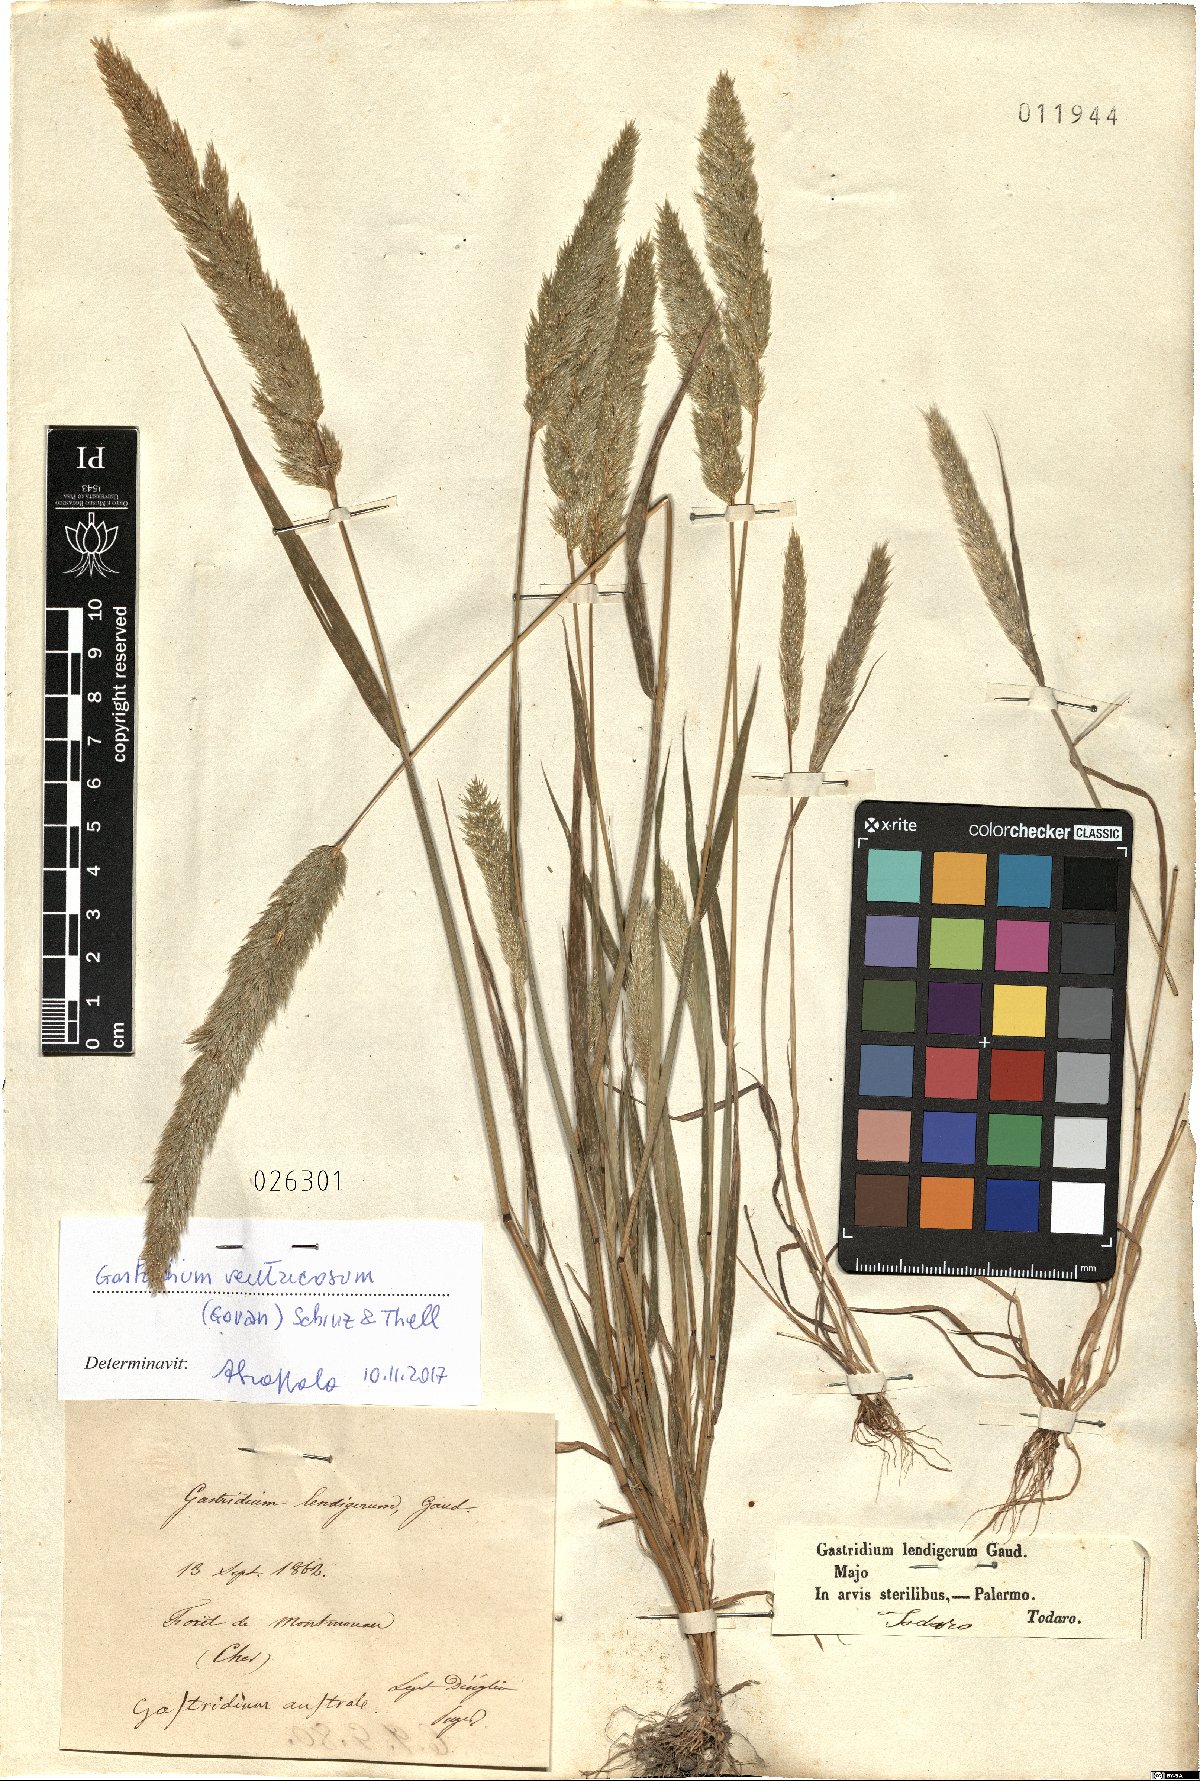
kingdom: Plantae
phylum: Tracheophyta
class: Liliopsida
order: Poales
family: Poaceae
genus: Gastridium
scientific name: Gastridium ventricosum
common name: Nit-grass
